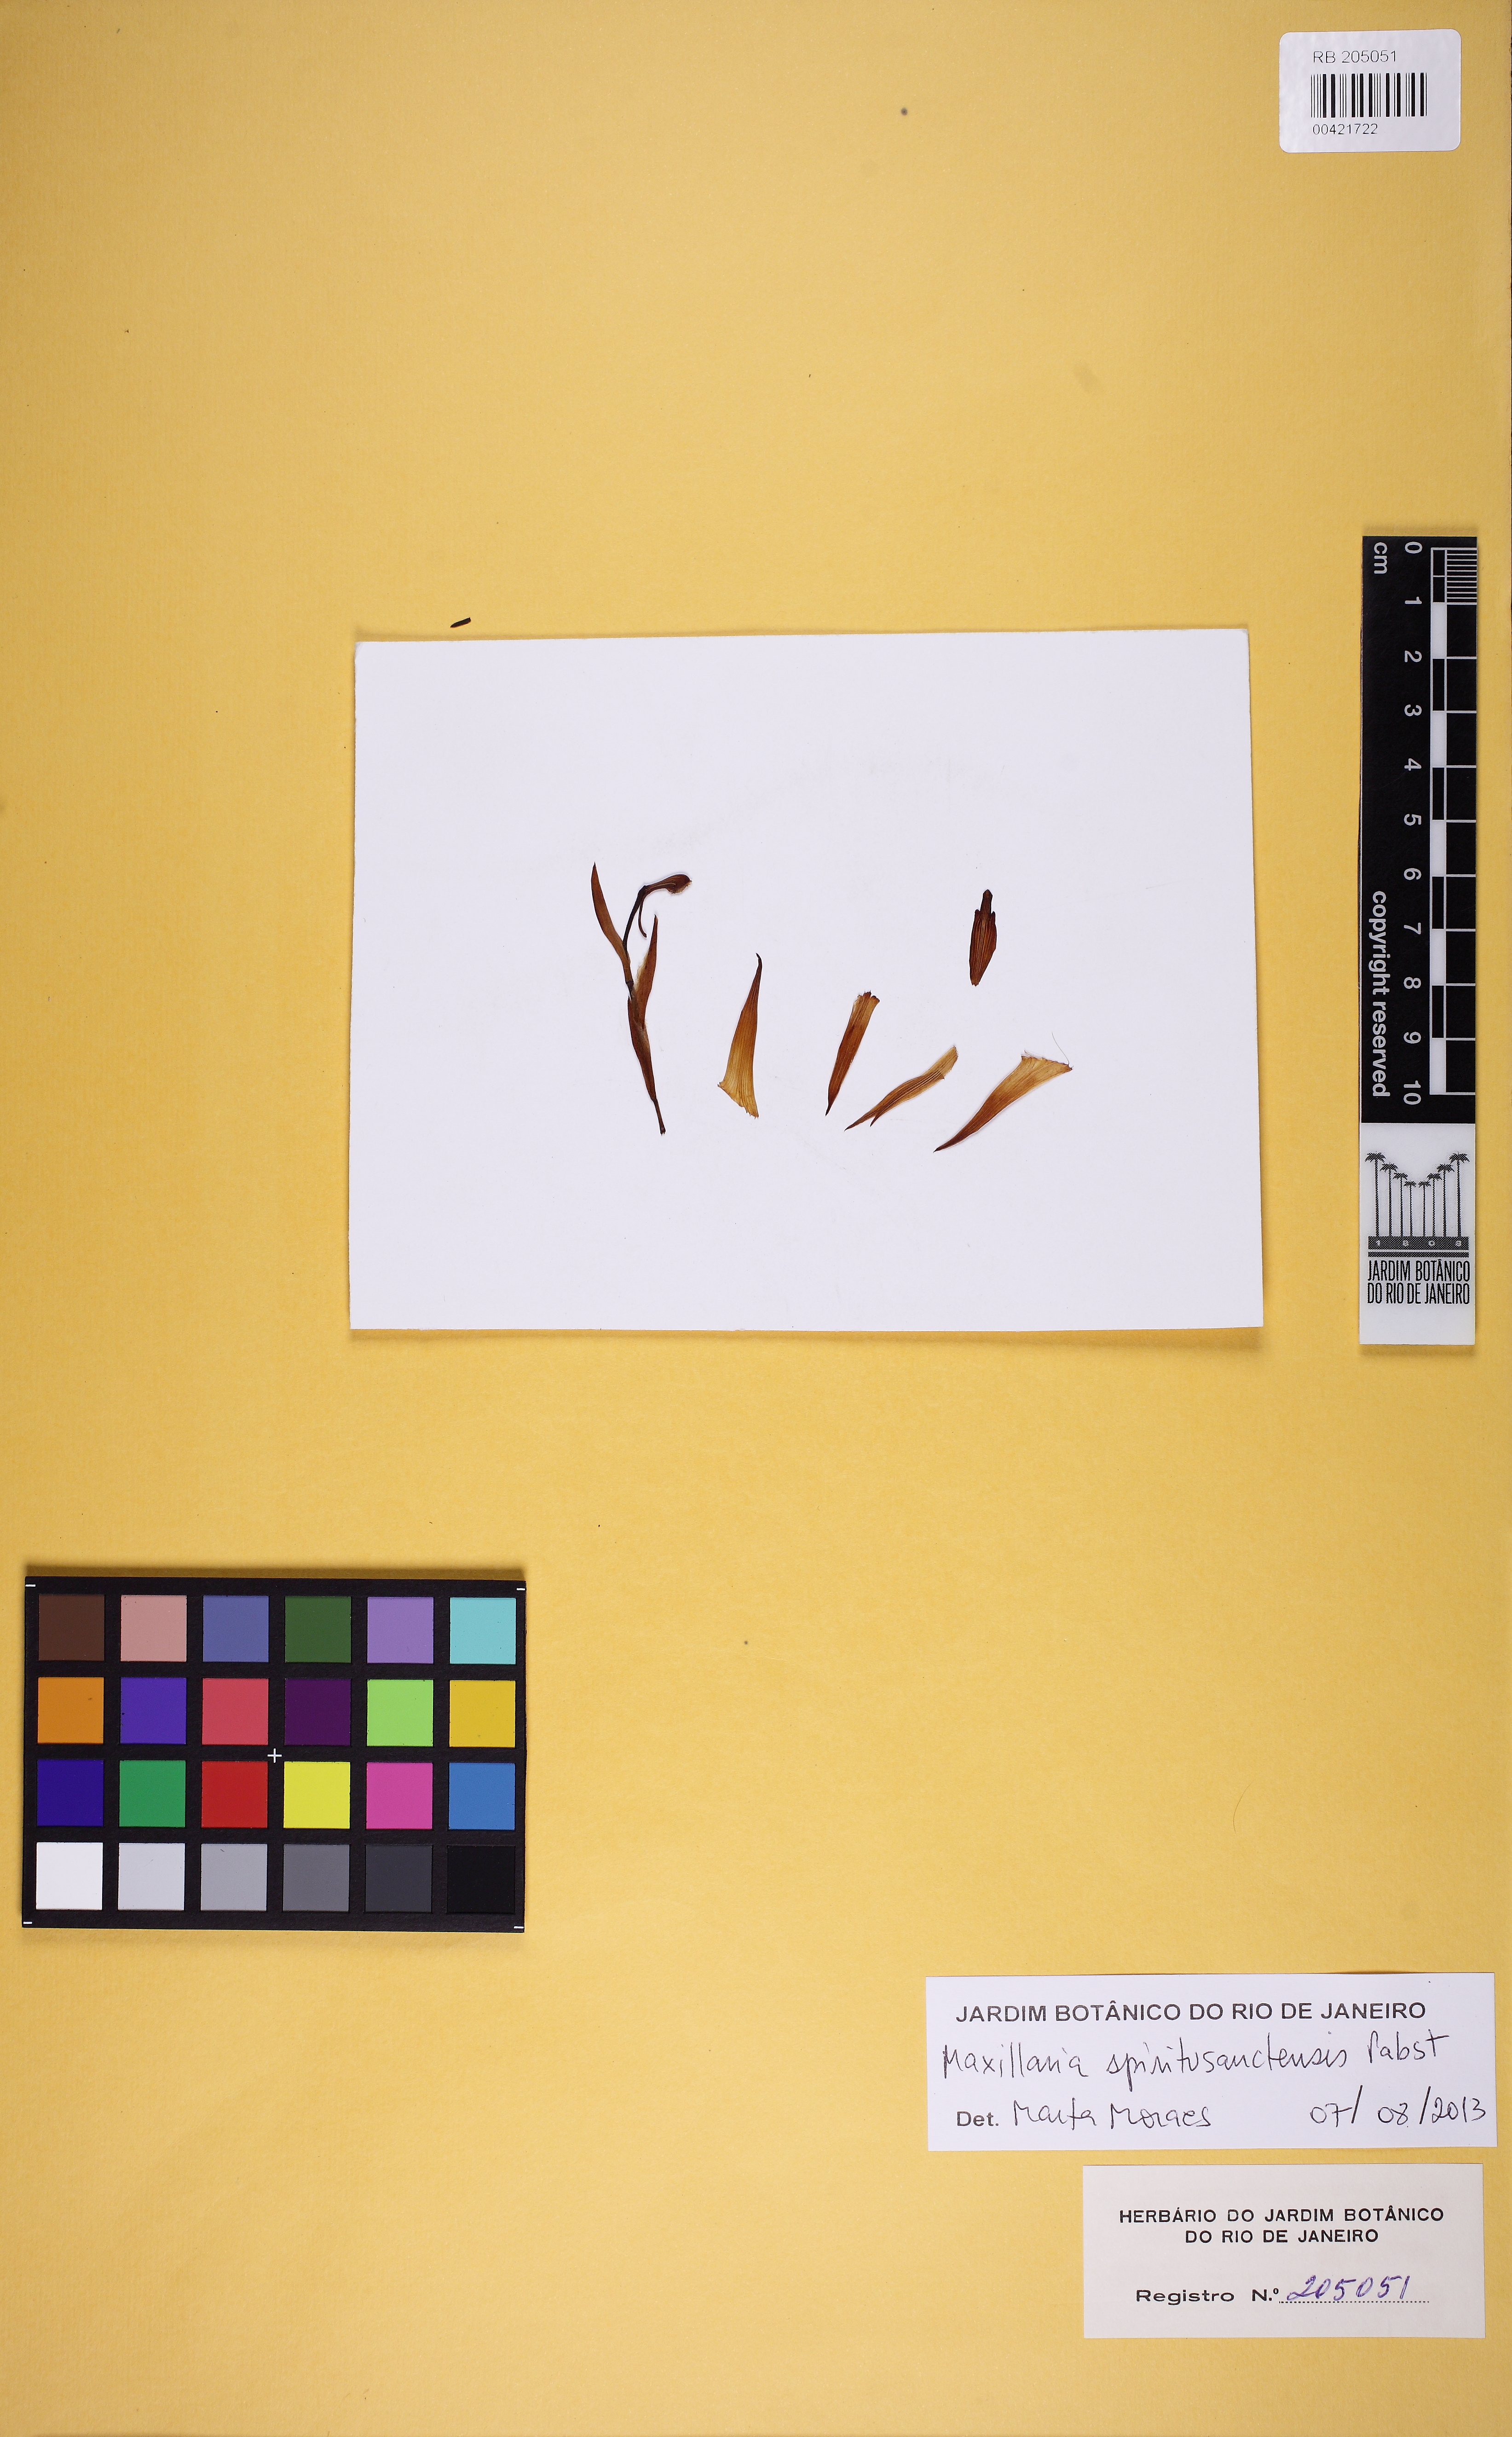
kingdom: Plantae
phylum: Tracheophyta
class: Liliopsida
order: Asparagales
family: Orchidaceae
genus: Maxillaria
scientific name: Maxillaria spiritu-sanctensis
